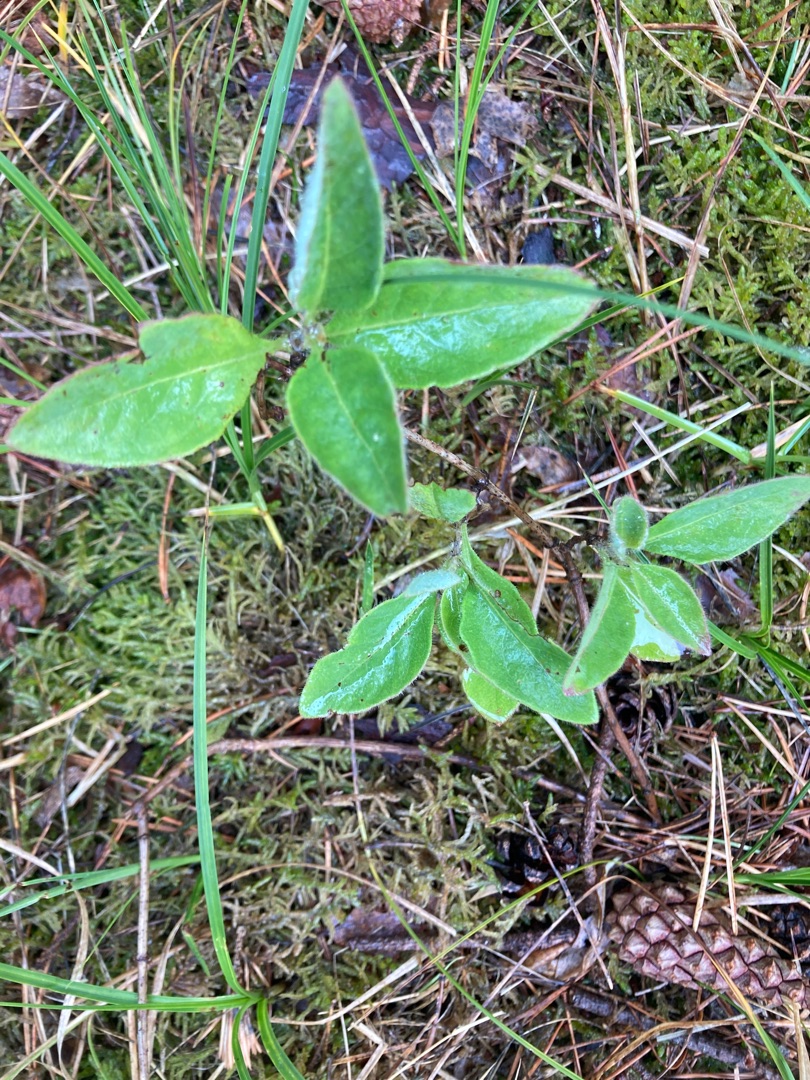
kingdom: Plantae
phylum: Tracheophyta
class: Magnoliopsida
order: Dipsacales
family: Caprifoliaceae
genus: Lonicera
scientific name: Lonicera periclymenum
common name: Almindelig gedeblad
